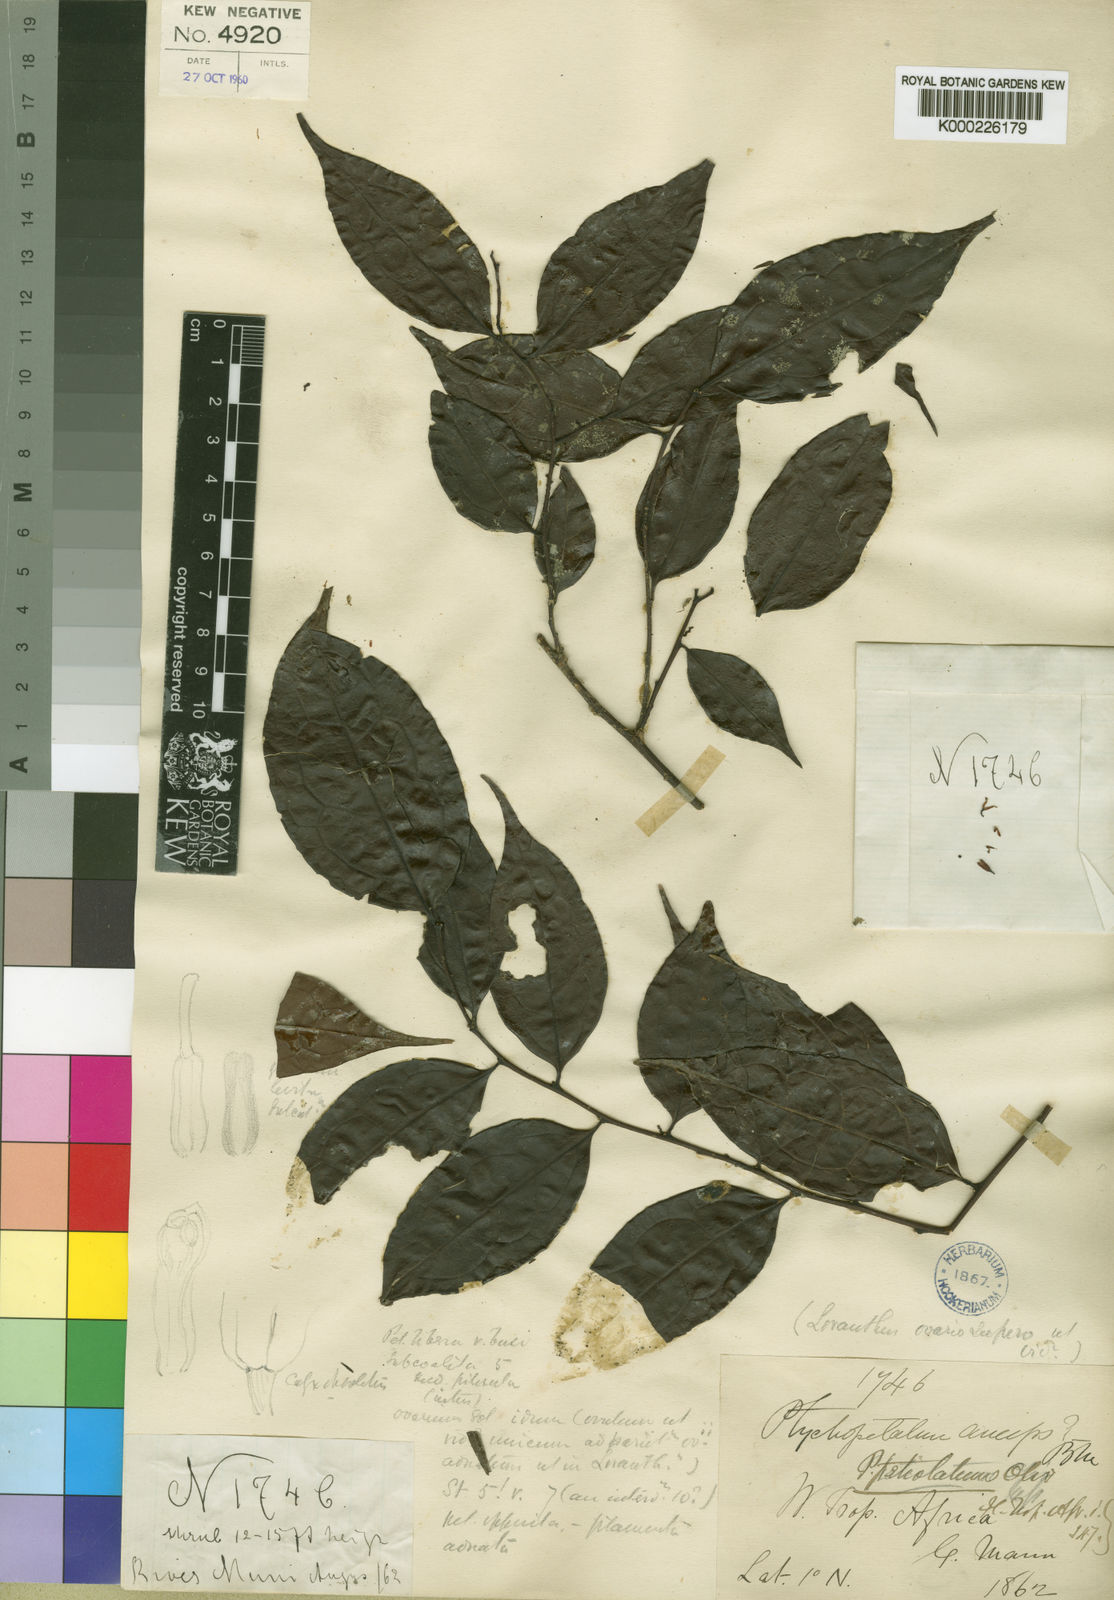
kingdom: Plantae
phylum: Tracheophyta
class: Magnoliopsida
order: Santalales
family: Olacaceae
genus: Ptychopetalum
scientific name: Ptychopetalum petiolatum
